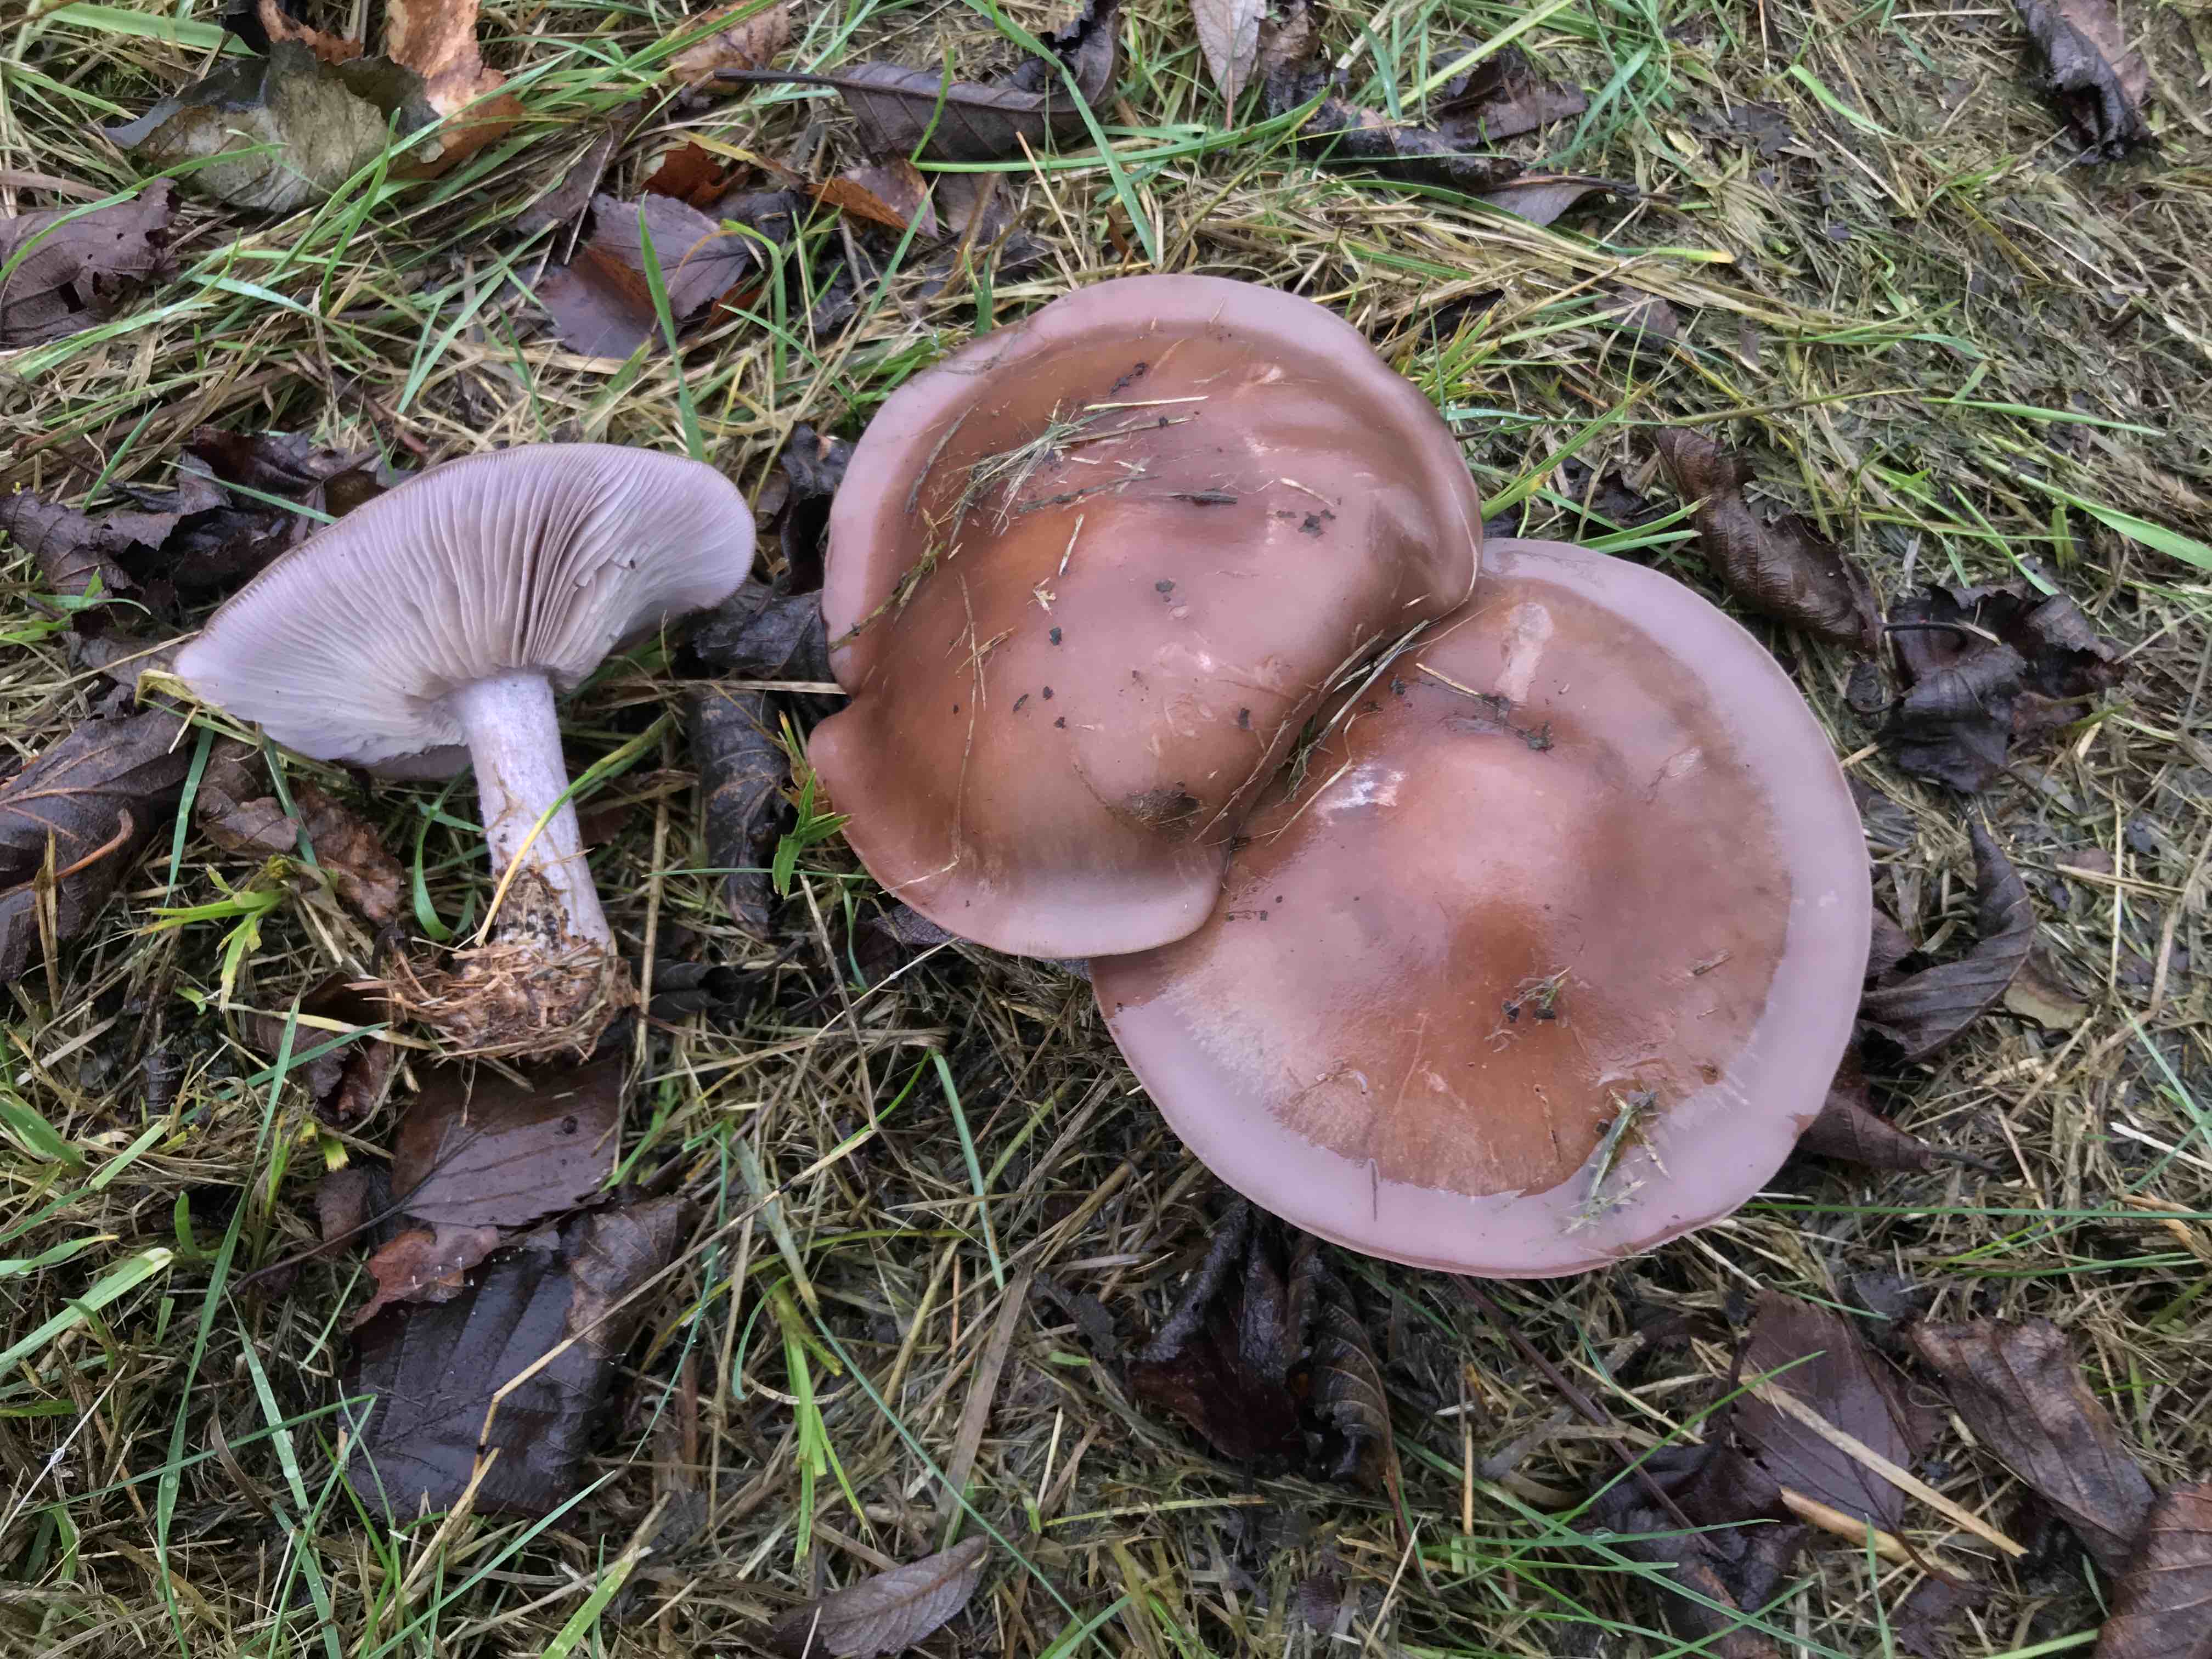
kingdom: Fungi
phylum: Basidiomycota
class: Agaricomycetes
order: Agaricales
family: Tricholomataceae
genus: Lepista
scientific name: Lepista nuda
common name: violet hekseringshat
